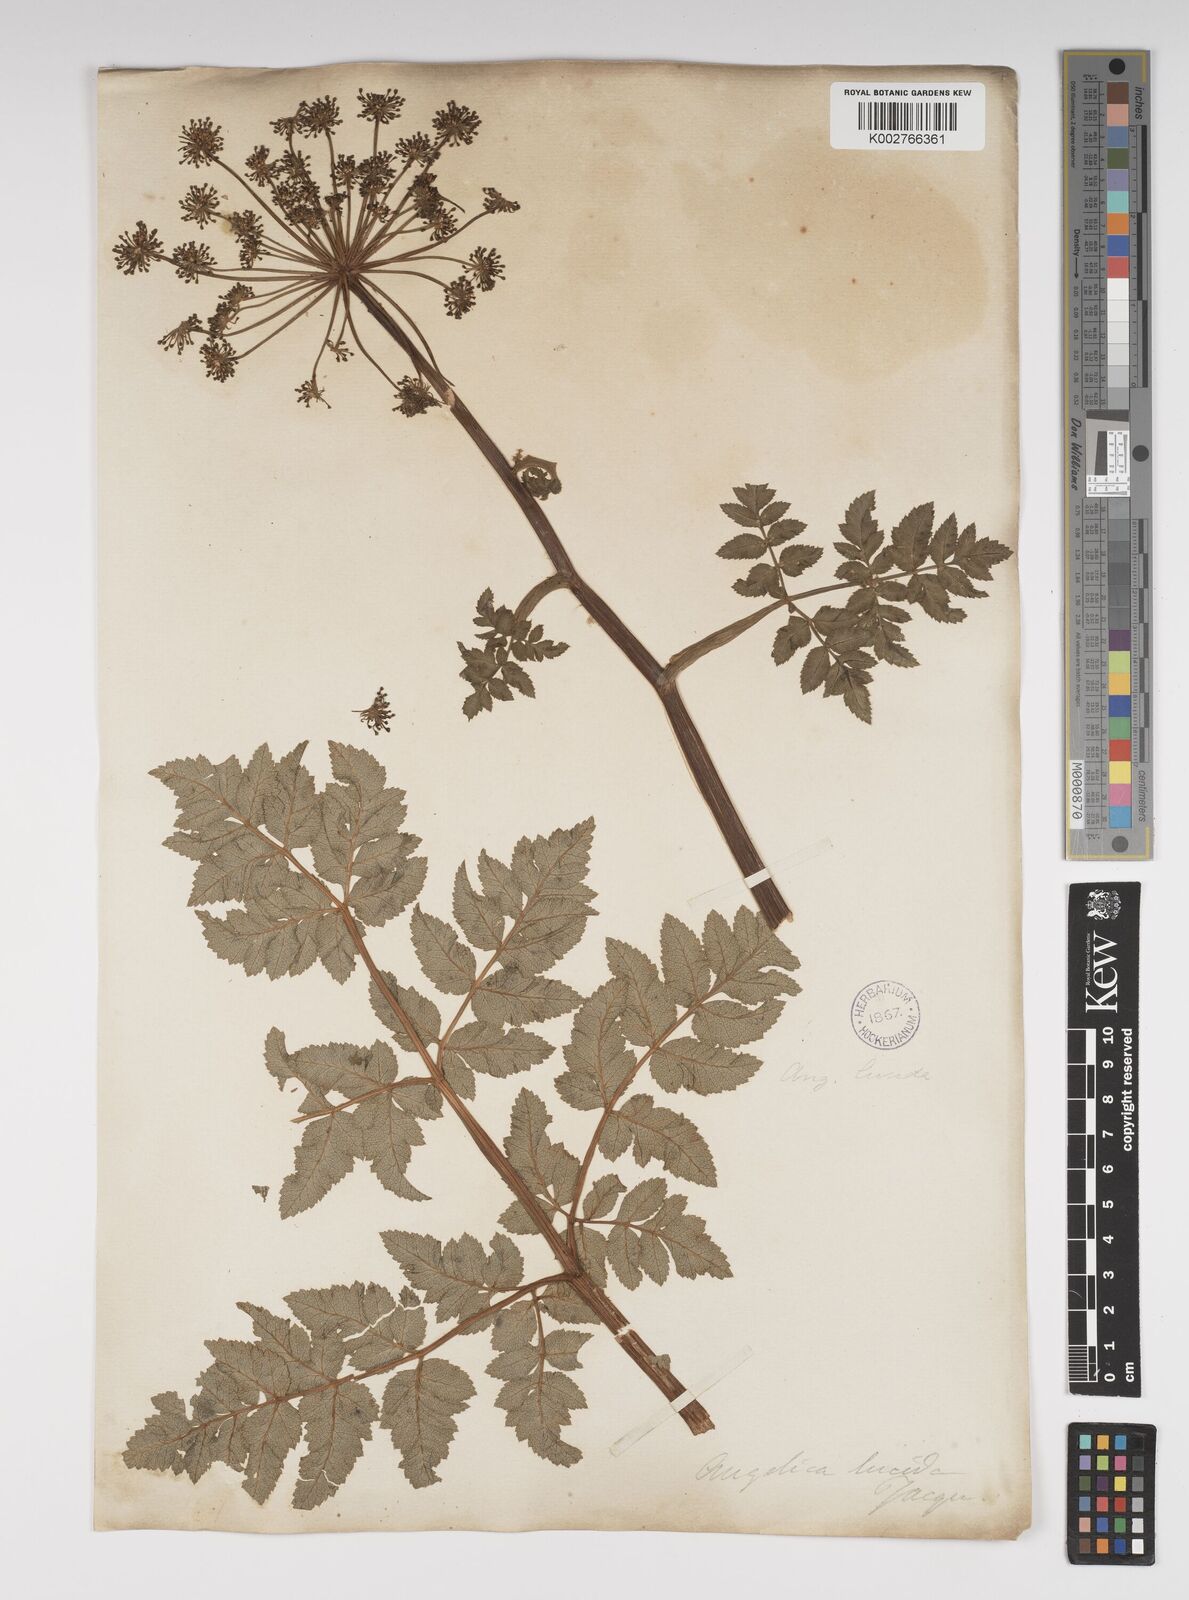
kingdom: Plantae
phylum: Tracheophyta
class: Magnoliopsida
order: Apiales
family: Apiaceae
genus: Angelica
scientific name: Angelica lucida
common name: Seabeach angelica
